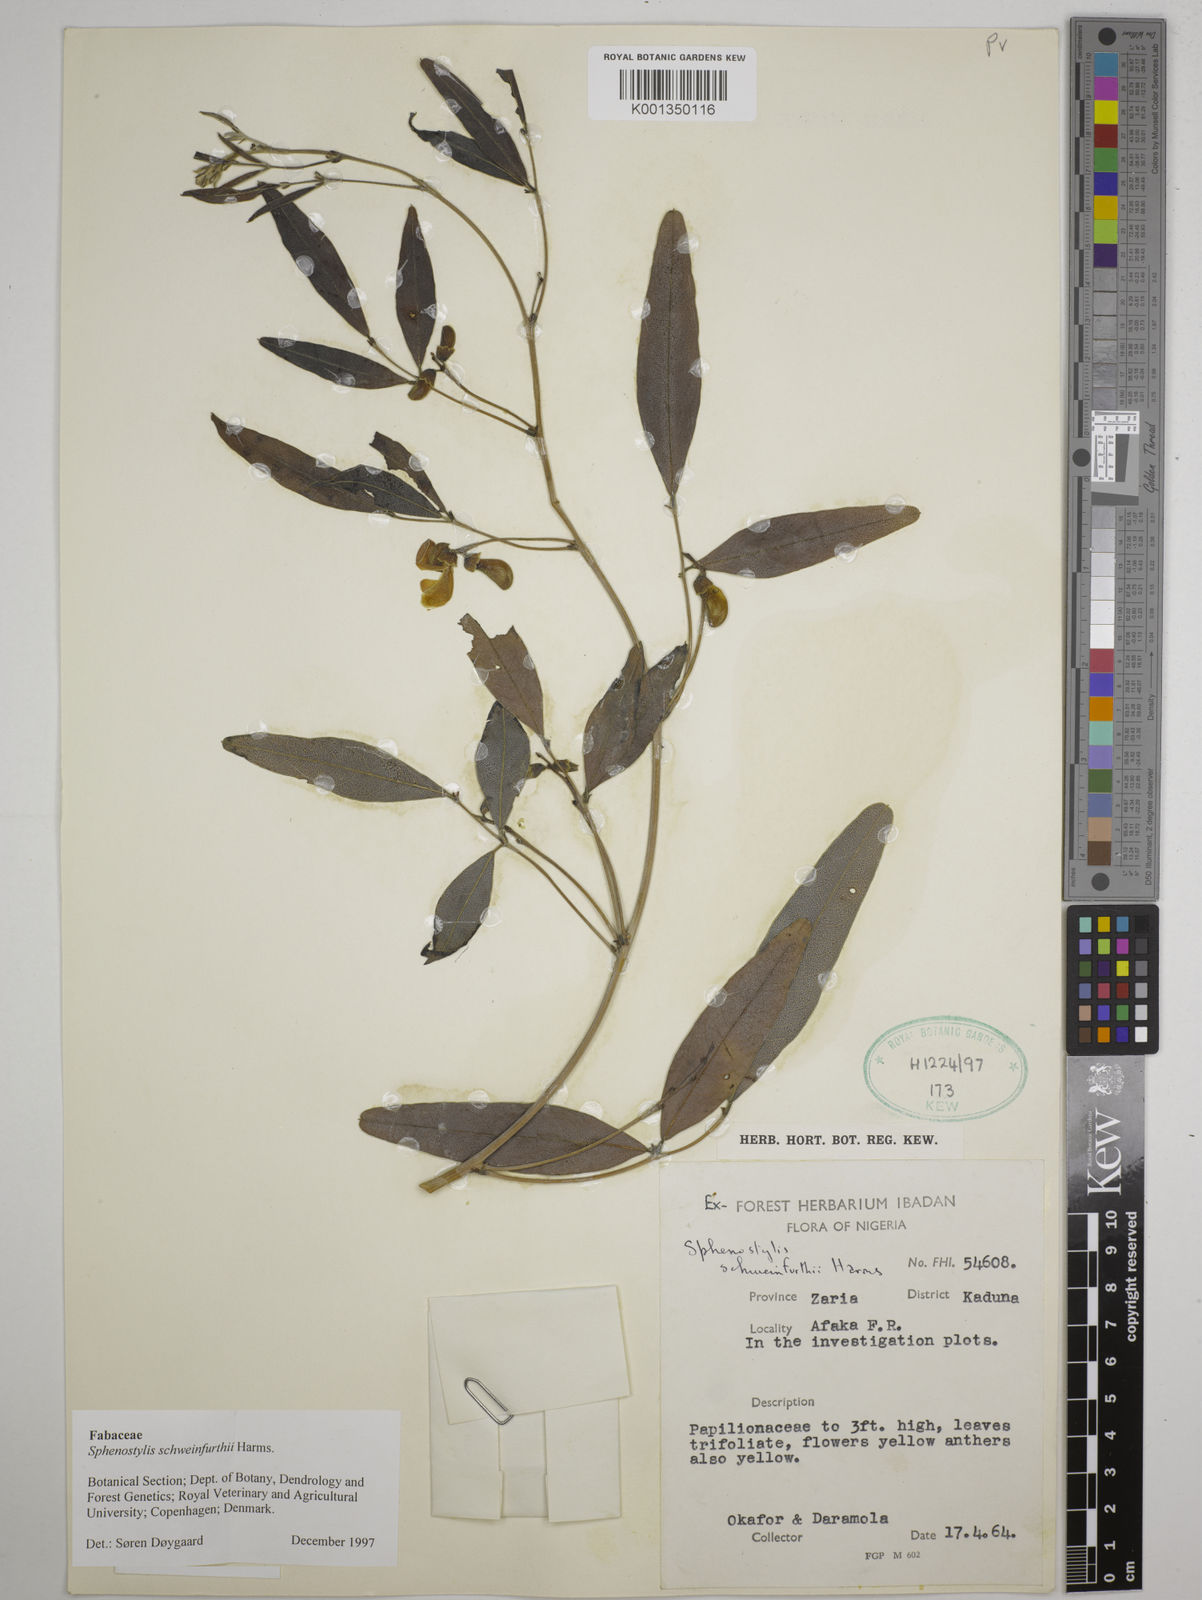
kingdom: Plantae
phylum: Tracheophyta
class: Magnoliopsida
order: Fabales
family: Fabaceae
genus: Sphenostylis
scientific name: Sphenostylis schweinfurthii
